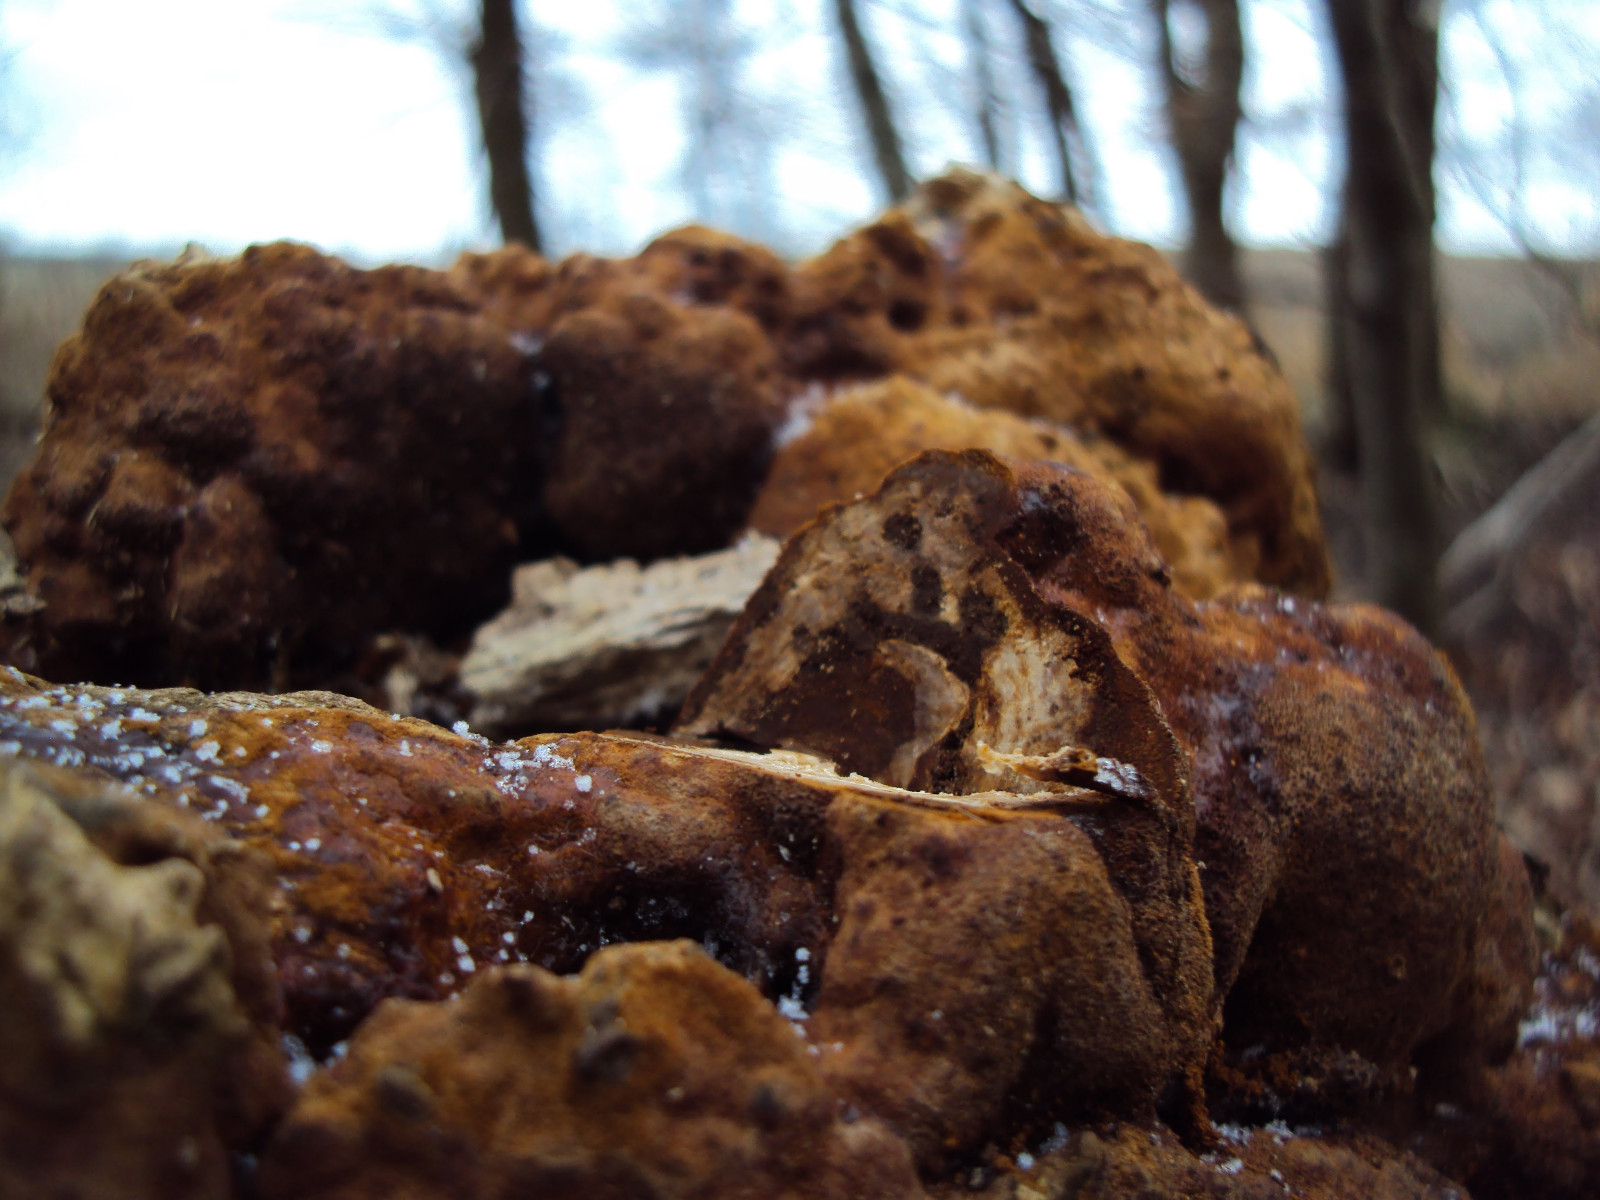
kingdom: Fungi
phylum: Basidiomycota
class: Agaricomycetes
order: Hymenochaetales
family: Hymenochaetaceae
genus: Fuscoporia
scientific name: Fuscoporia
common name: Ildporesvamp
